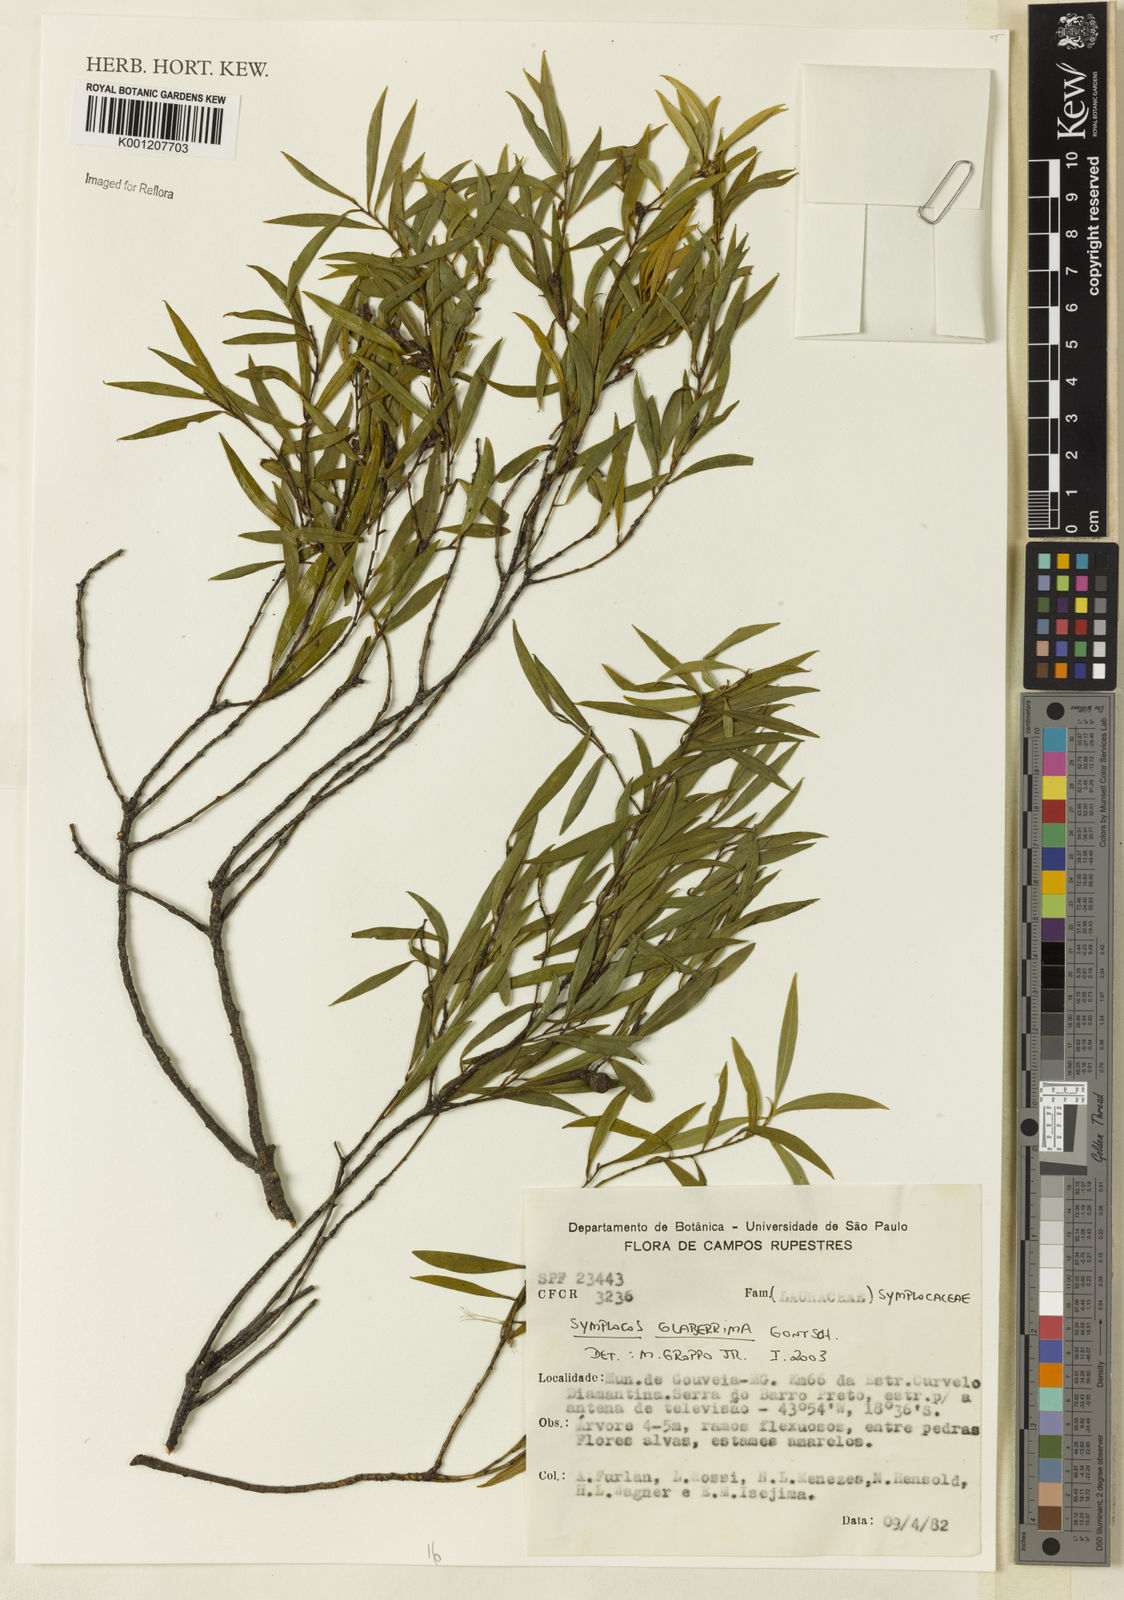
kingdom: Plantae
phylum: Tracheophyta
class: Magnoliopsida
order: Ericales
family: Symplocaceae
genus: Symplocos
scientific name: Symplocos
